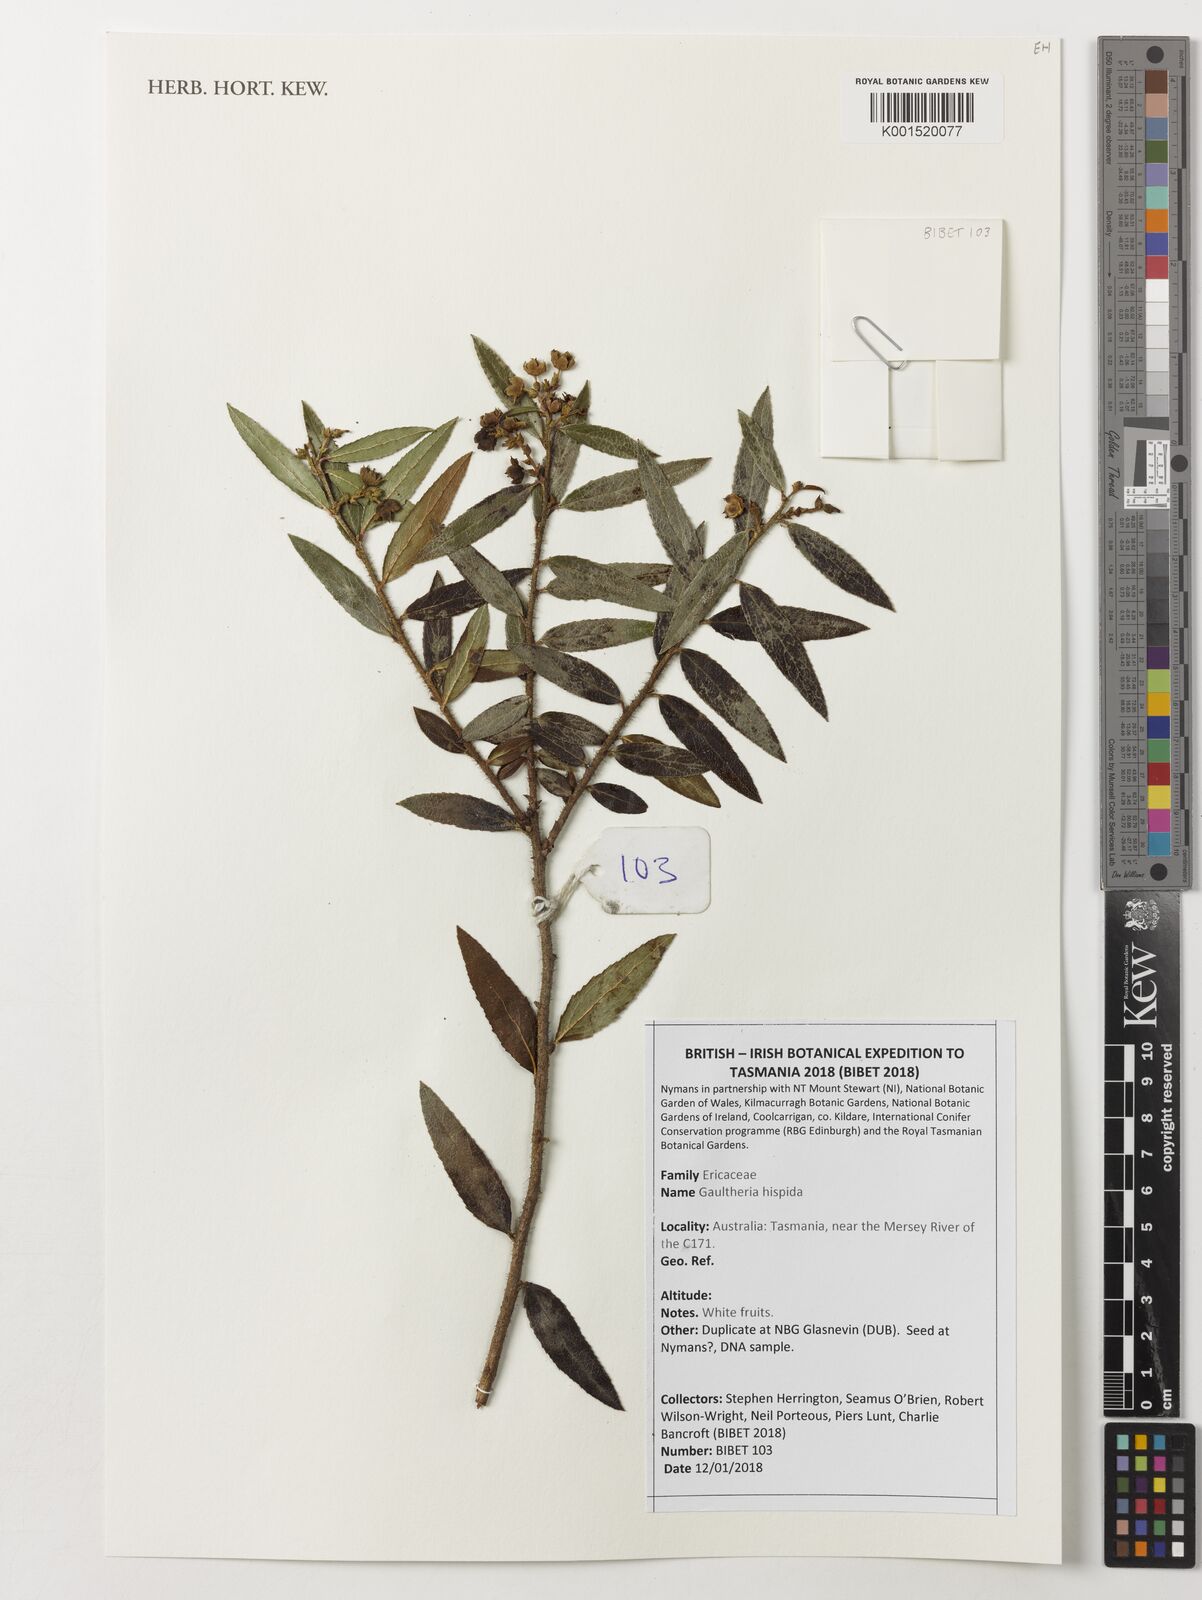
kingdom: Plantae
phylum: Tracheophyta
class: Magnoliopsida
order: Ericales
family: Ericaceae
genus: Gaultheria
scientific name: Gaultheria hispida
